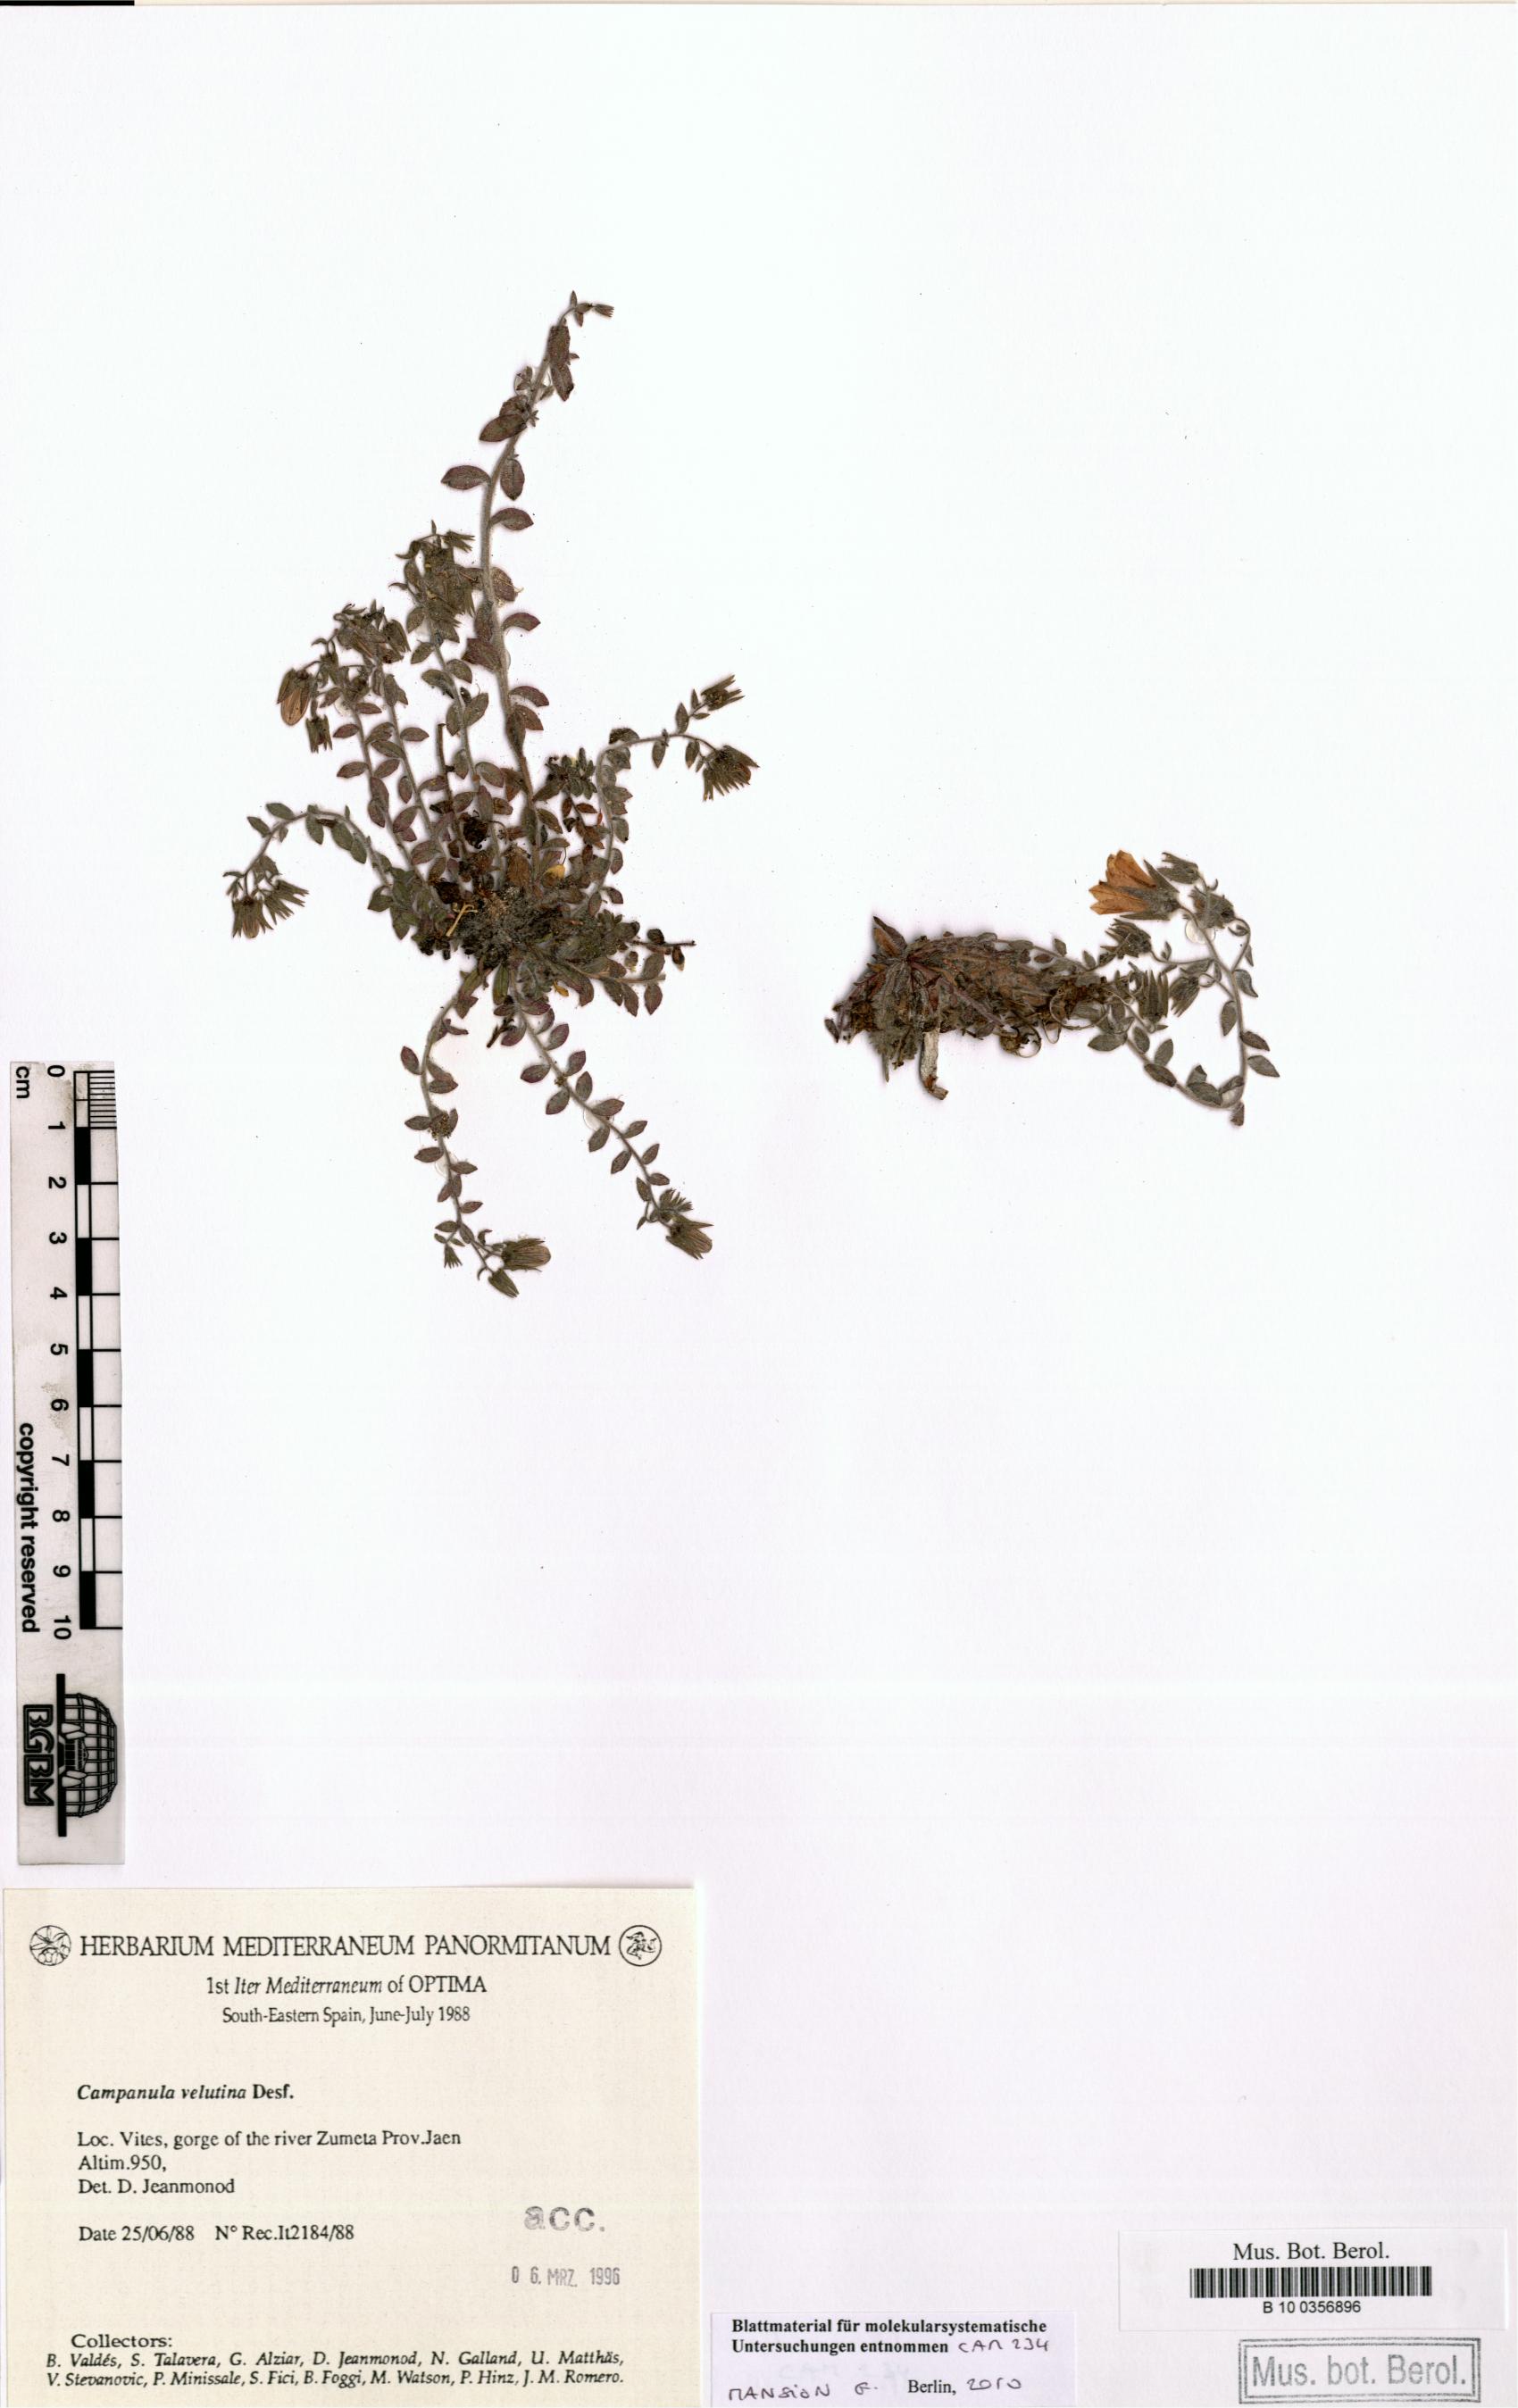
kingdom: Plantae
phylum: Tracheophyta
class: Magnoliopsida
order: Asterales
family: Campanulaceae
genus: Campanula
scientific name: Campanula mollis
